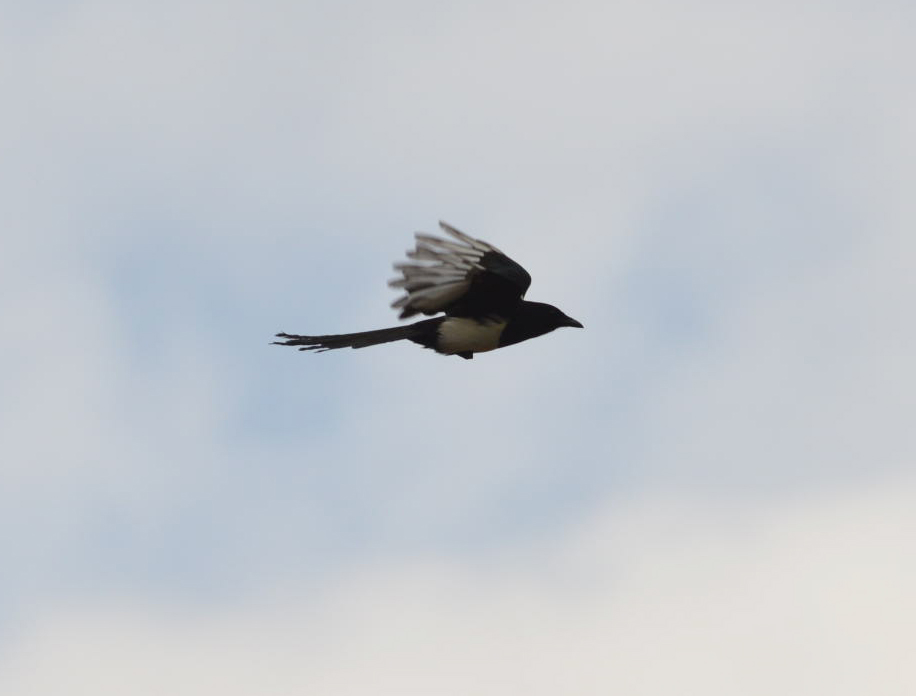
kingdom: Animalia
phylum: Chordata
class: Aves
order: Passeriformes
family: Corvidae
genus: Pica
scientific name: Pica pica
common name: Eurasian magpie
